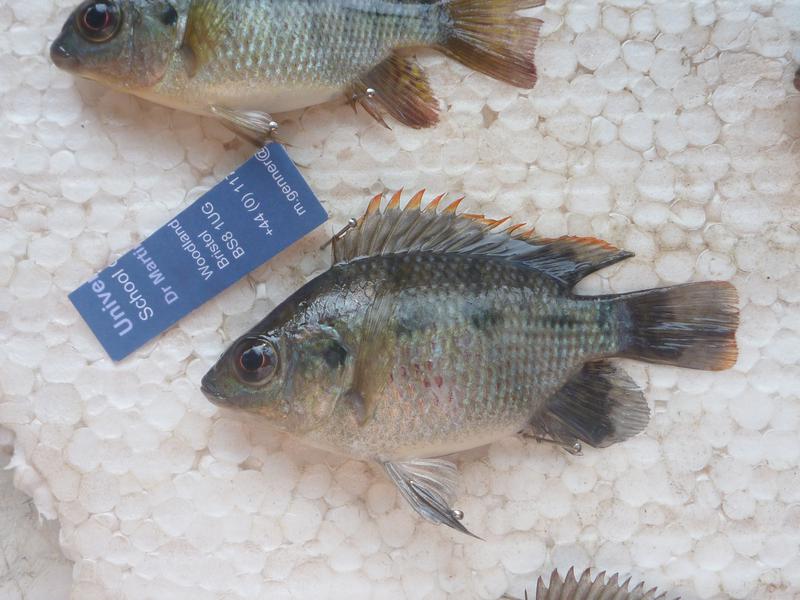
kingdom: Animalia
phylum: Chordata
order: Perciformes
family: Cichlidae
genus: Oreochromis
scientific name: Oreochromis upembae
